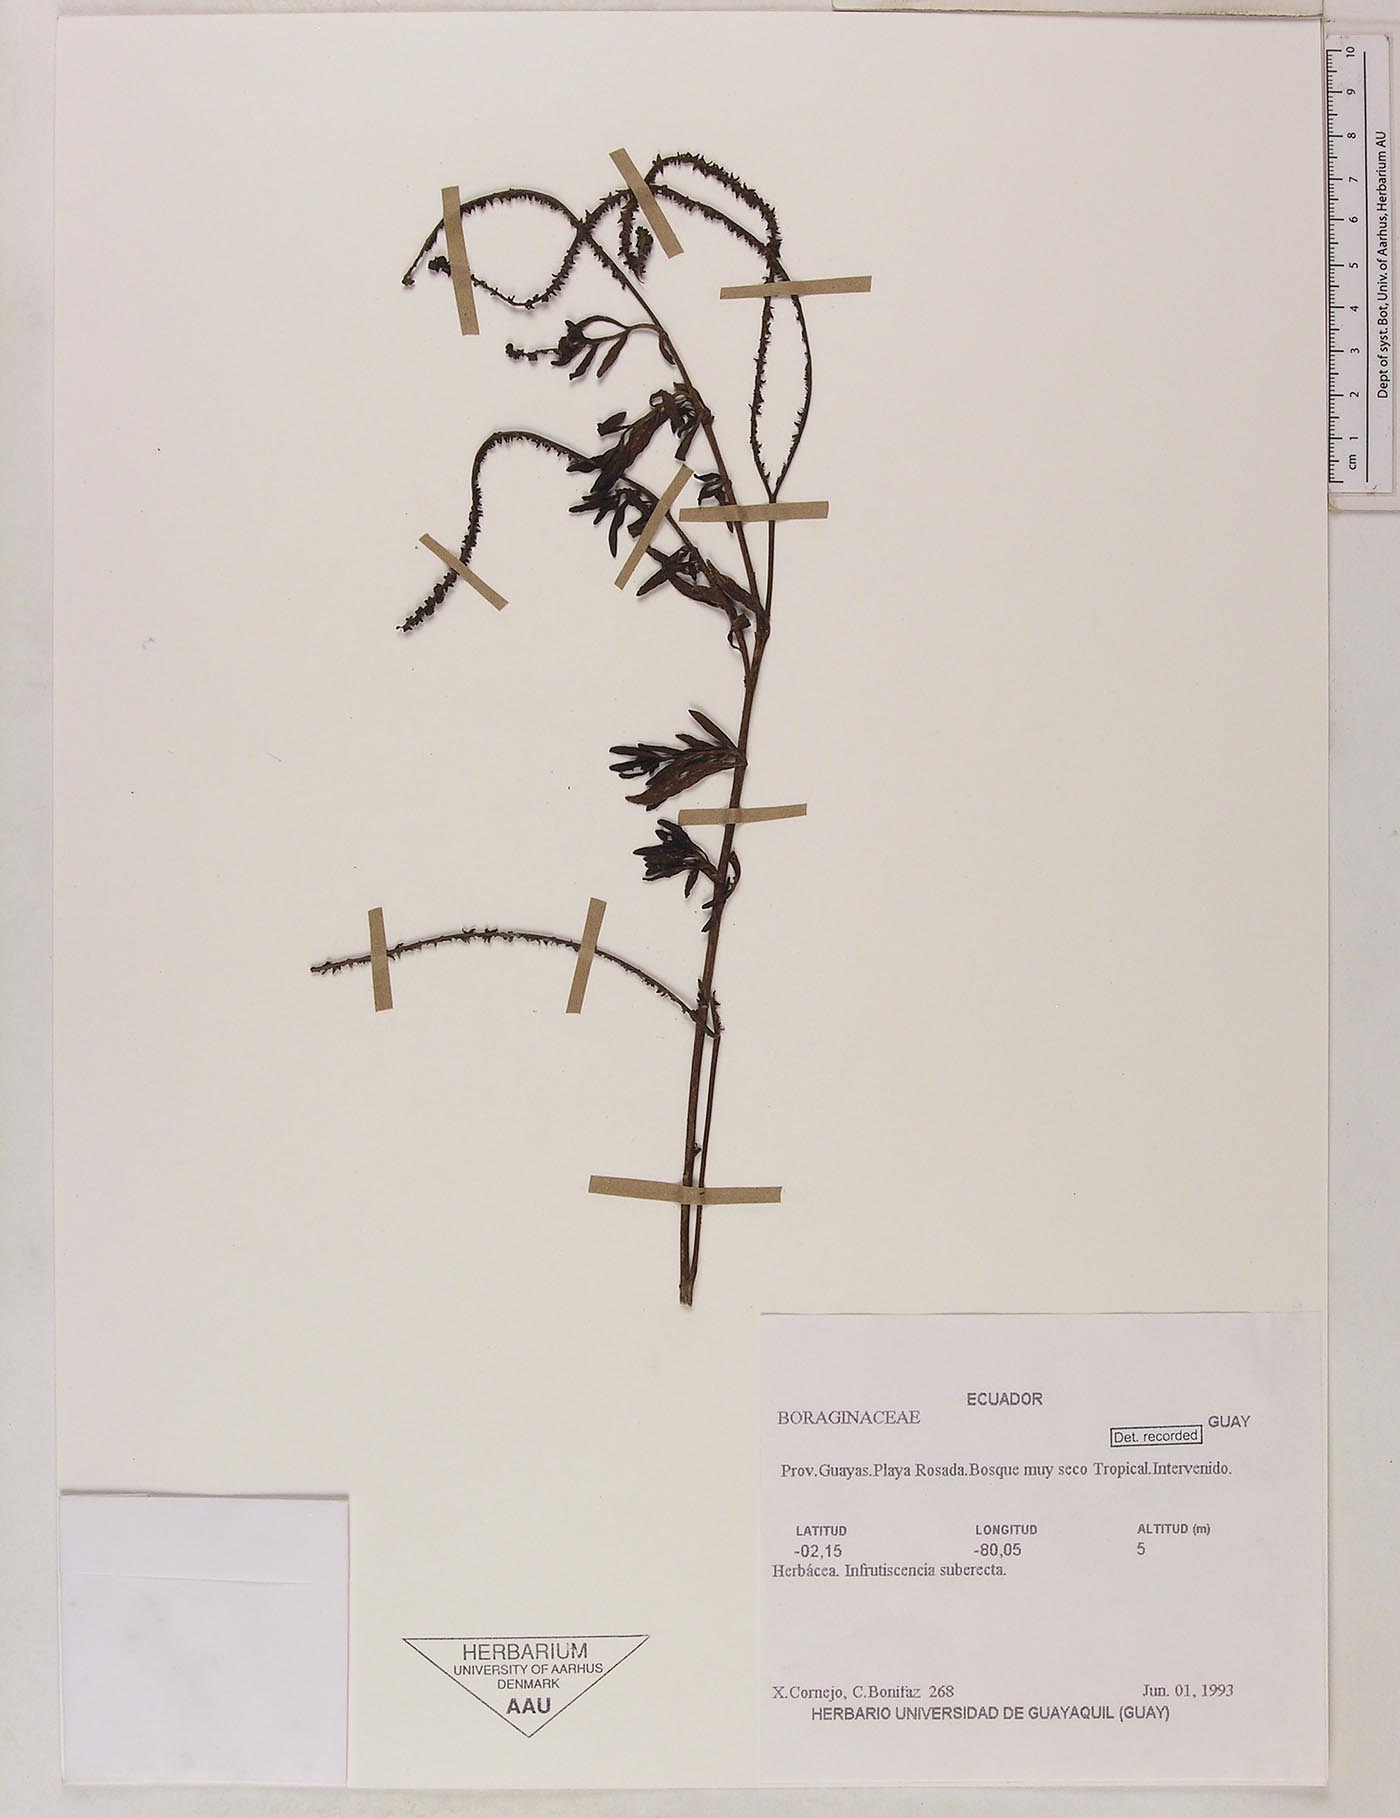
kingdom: Plantae
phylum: Tracheophyta
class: Magnoliopsida
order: Boraginales
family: Heliotropiaceae
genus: Heliotropium
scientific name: Heliotropium curassavicum
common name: Seaside heliotrope
